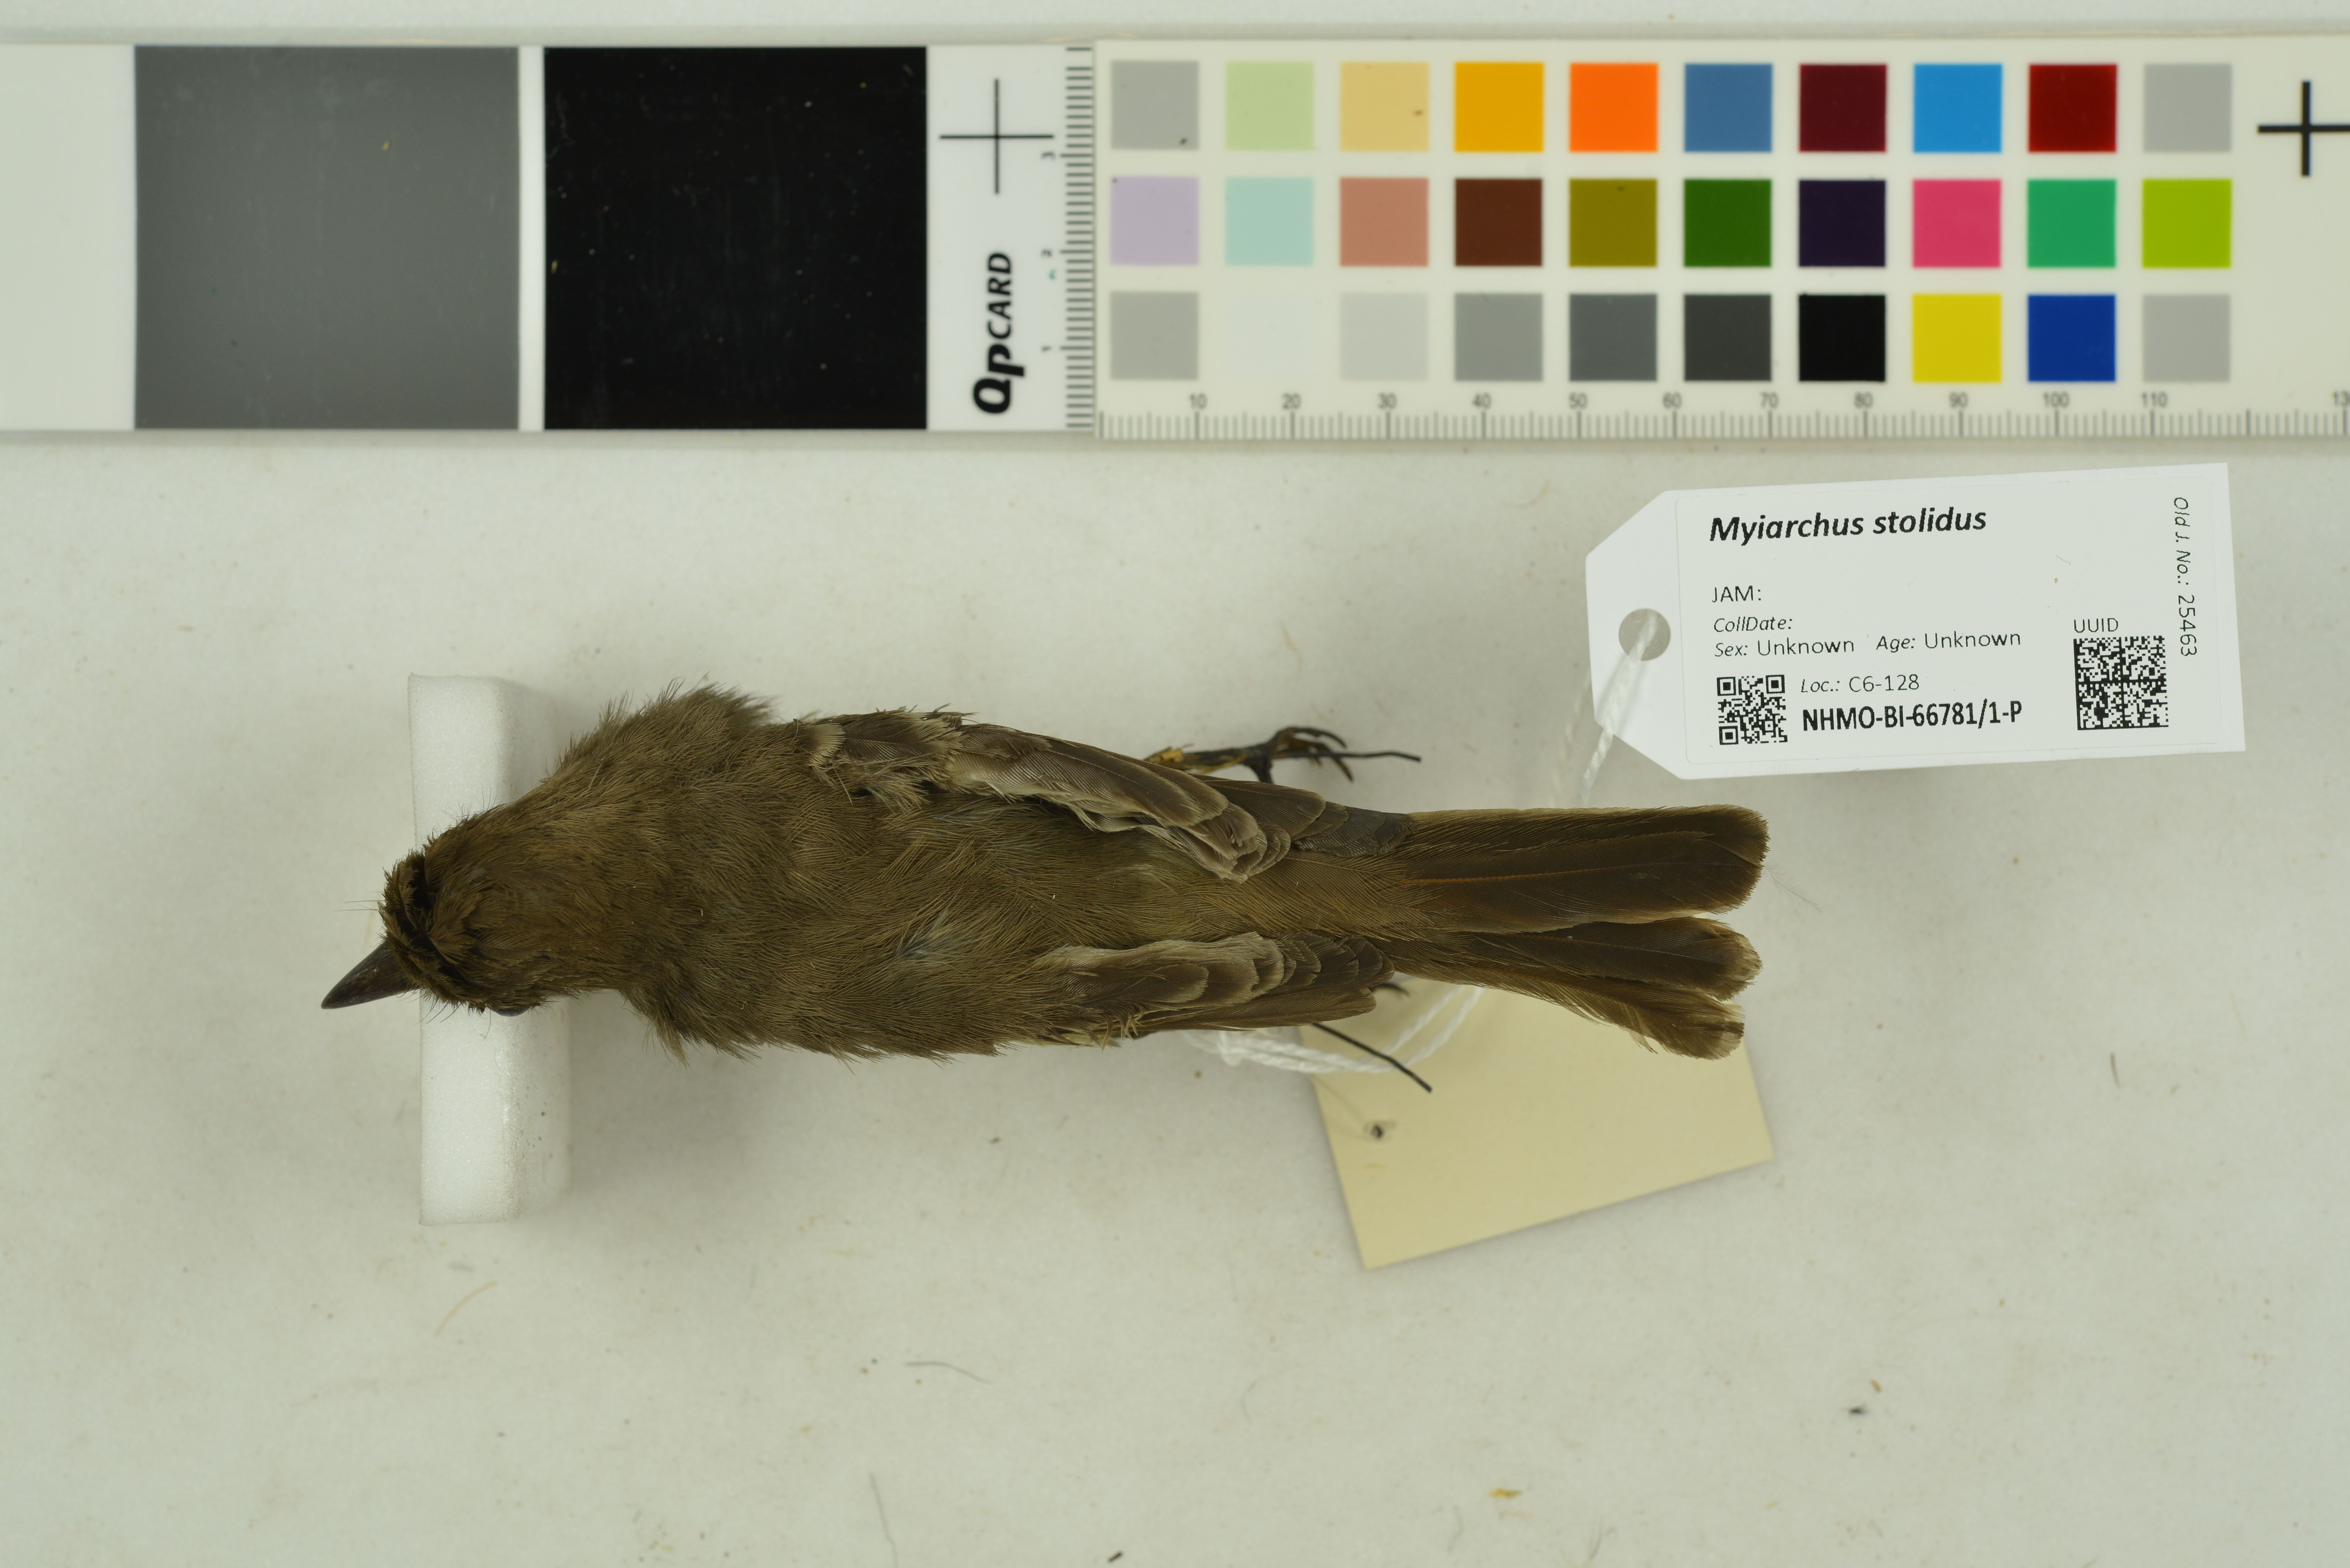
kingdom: Animalia
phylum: Chordata
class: Aves
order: Passeriformes
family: Tyrannidae
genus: Myiarchus
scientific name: Myiarchus stolidus
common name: Stolid flycatcher
